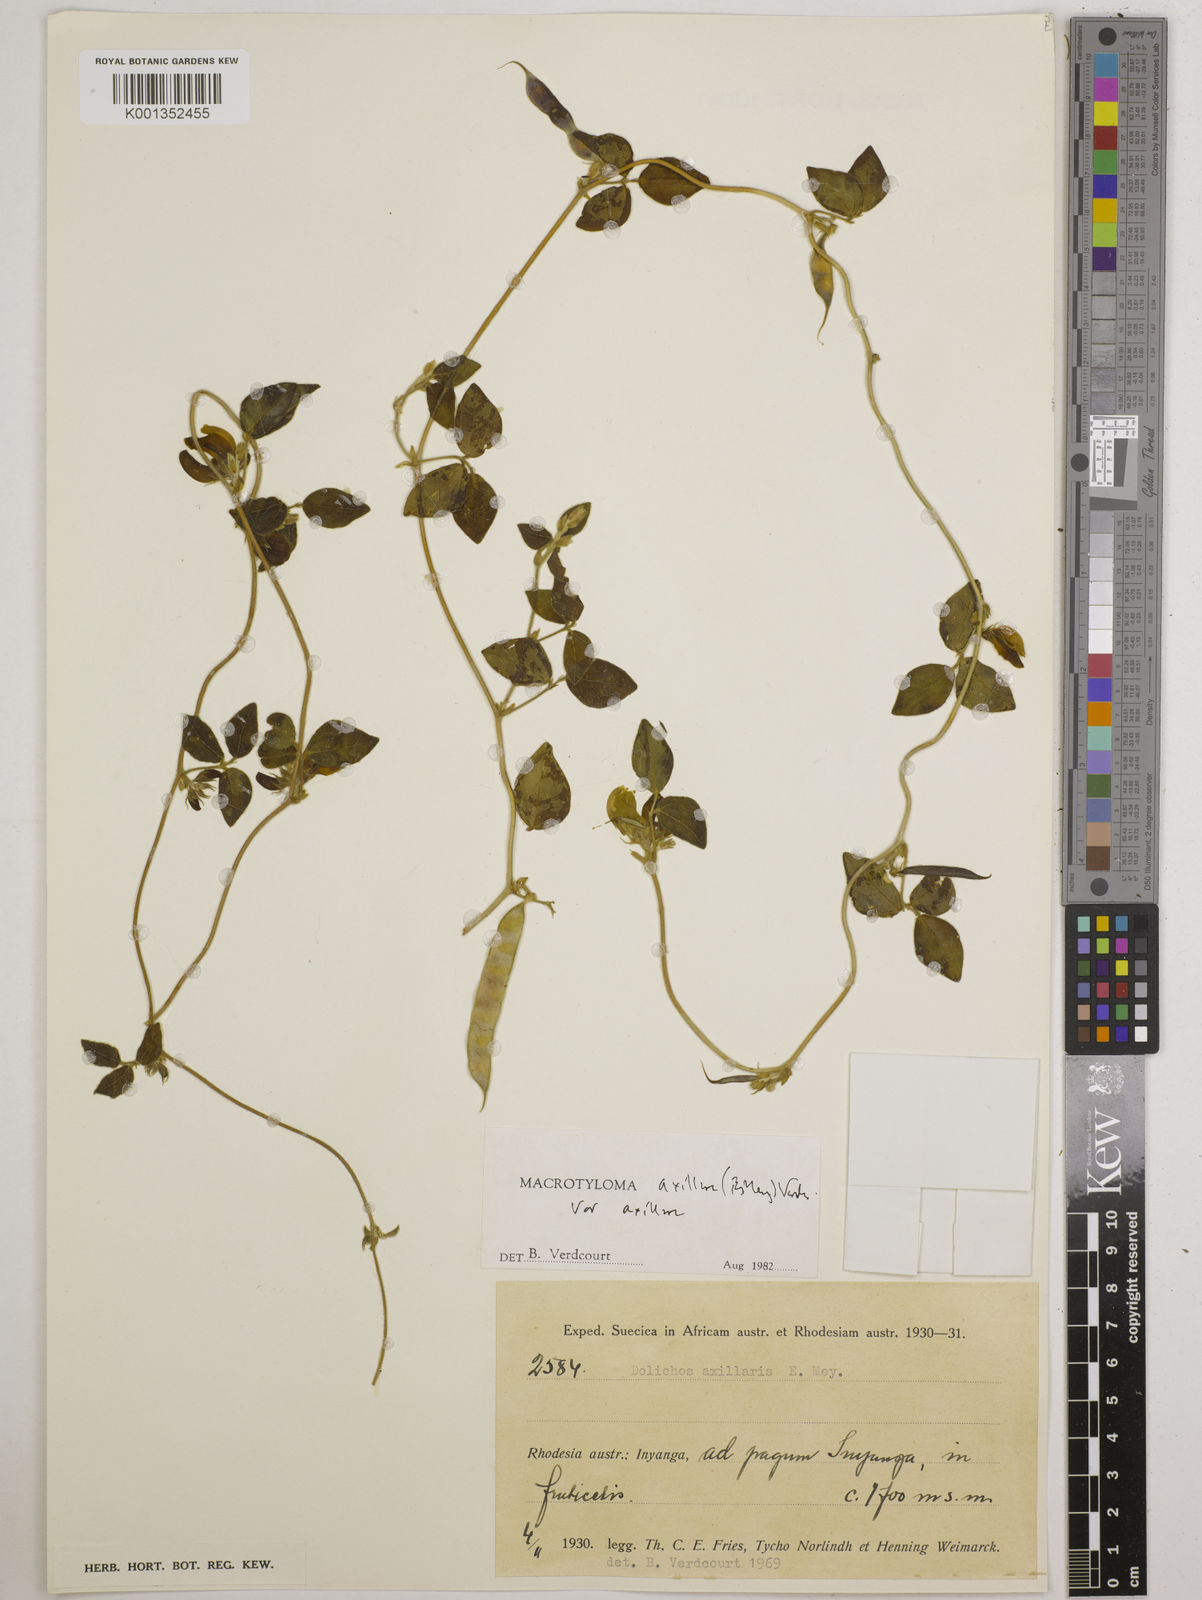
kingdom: Plantae
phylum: Tracheophyta
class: Magnoliopsida
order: Fabales
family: Fabaceae
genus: Macrotyloma
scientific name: Macrotyloma axillare
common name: Perennial horsegram
